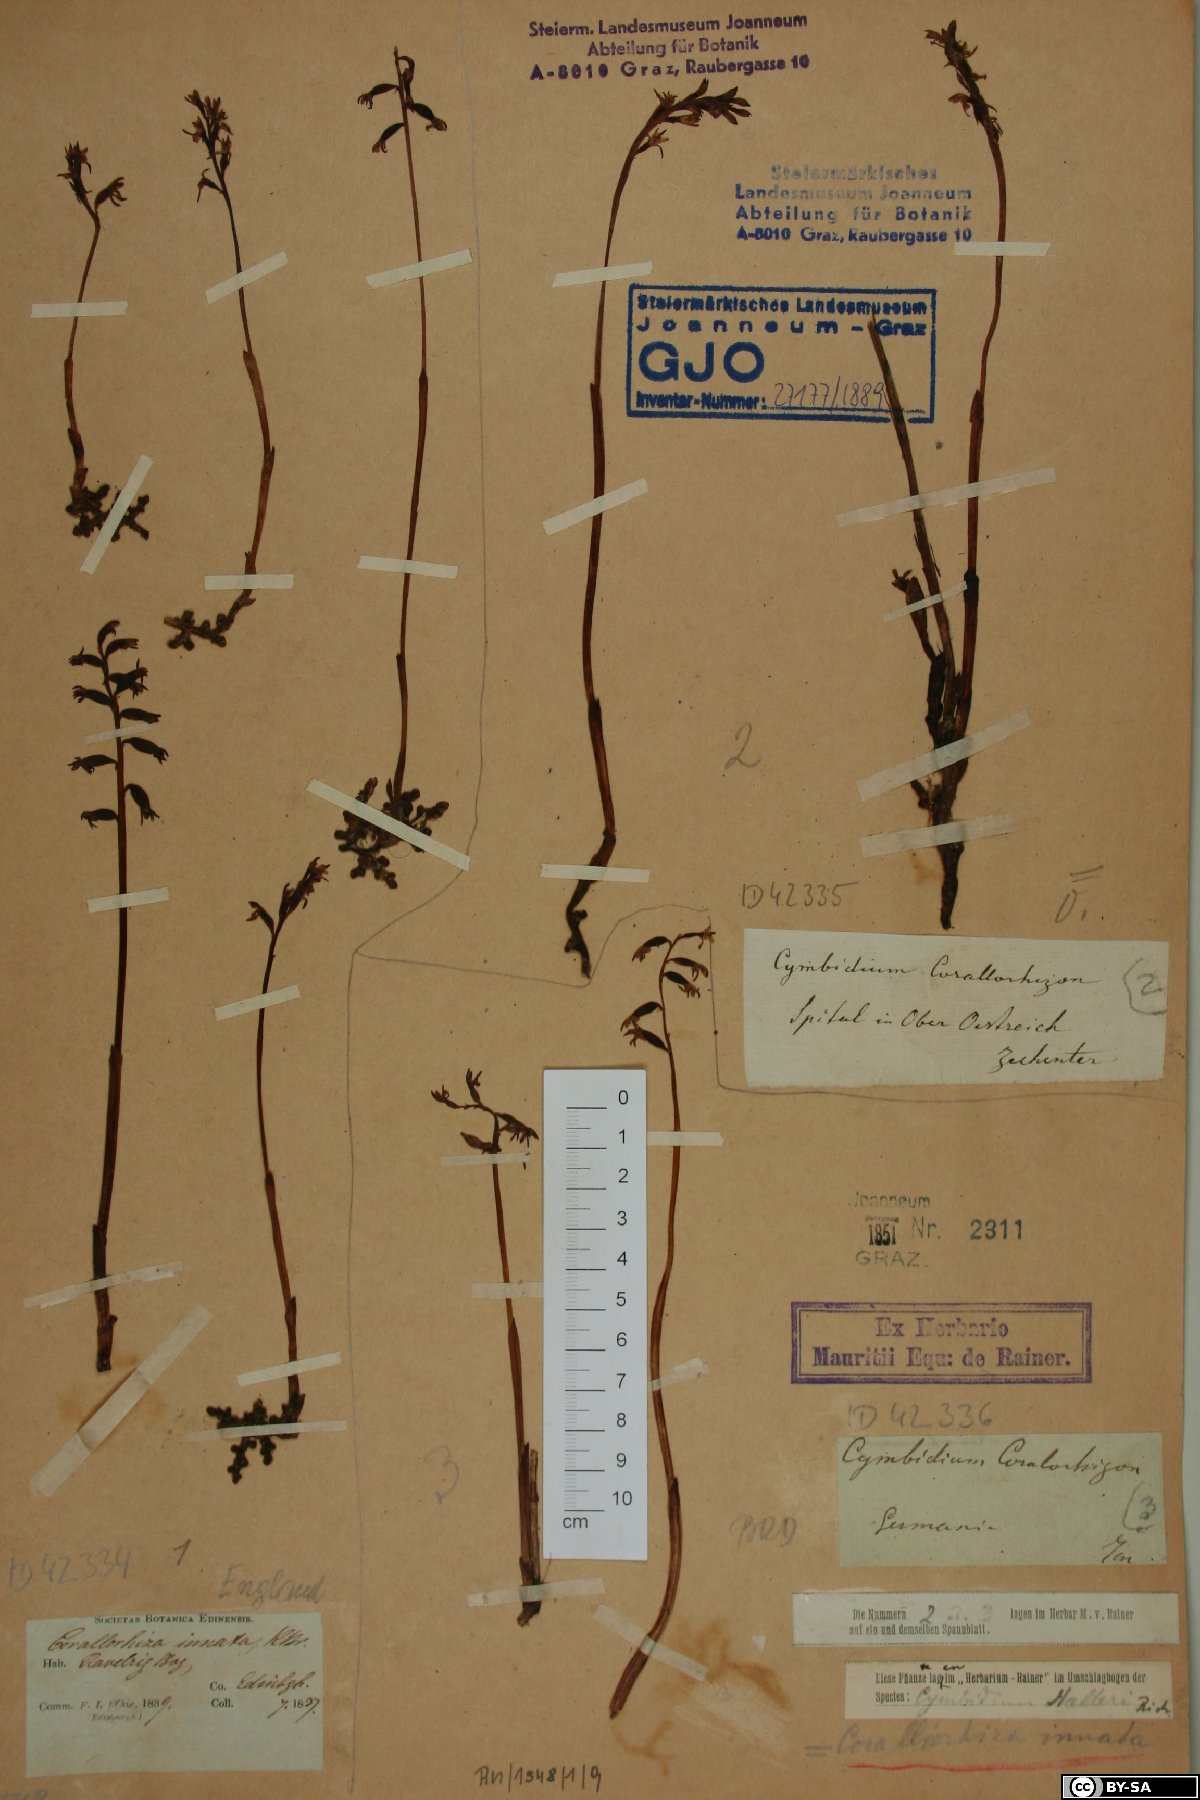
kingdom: Plantae
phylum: Tracheophyta
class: Liliopsida
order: Asparagales
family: Orchidaceae
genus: Corallorhiza
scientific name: Corallorhiza trifida
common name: Yellow coralroot
